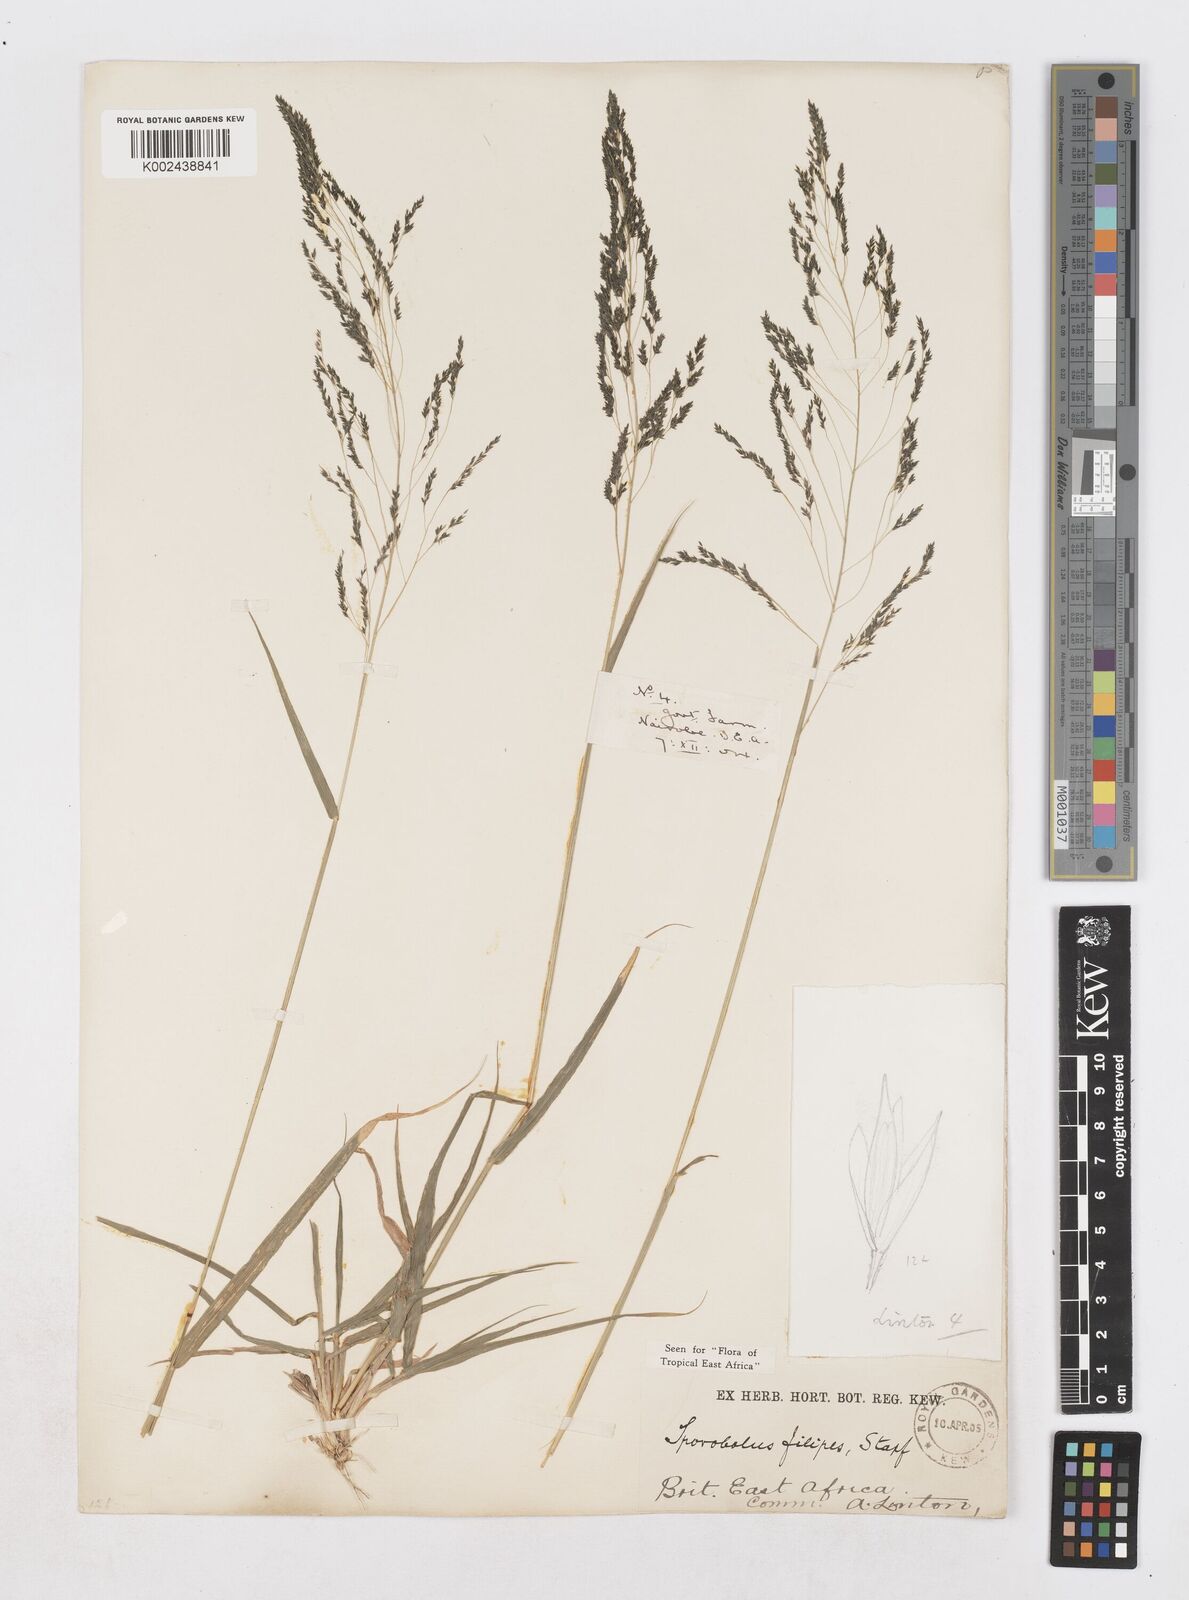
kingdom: Plantae
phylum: Tracheophyta
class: Liliopsida
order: Poales
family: Poaceae
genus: Sporobolus
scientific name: Sporobolus agrostoides
